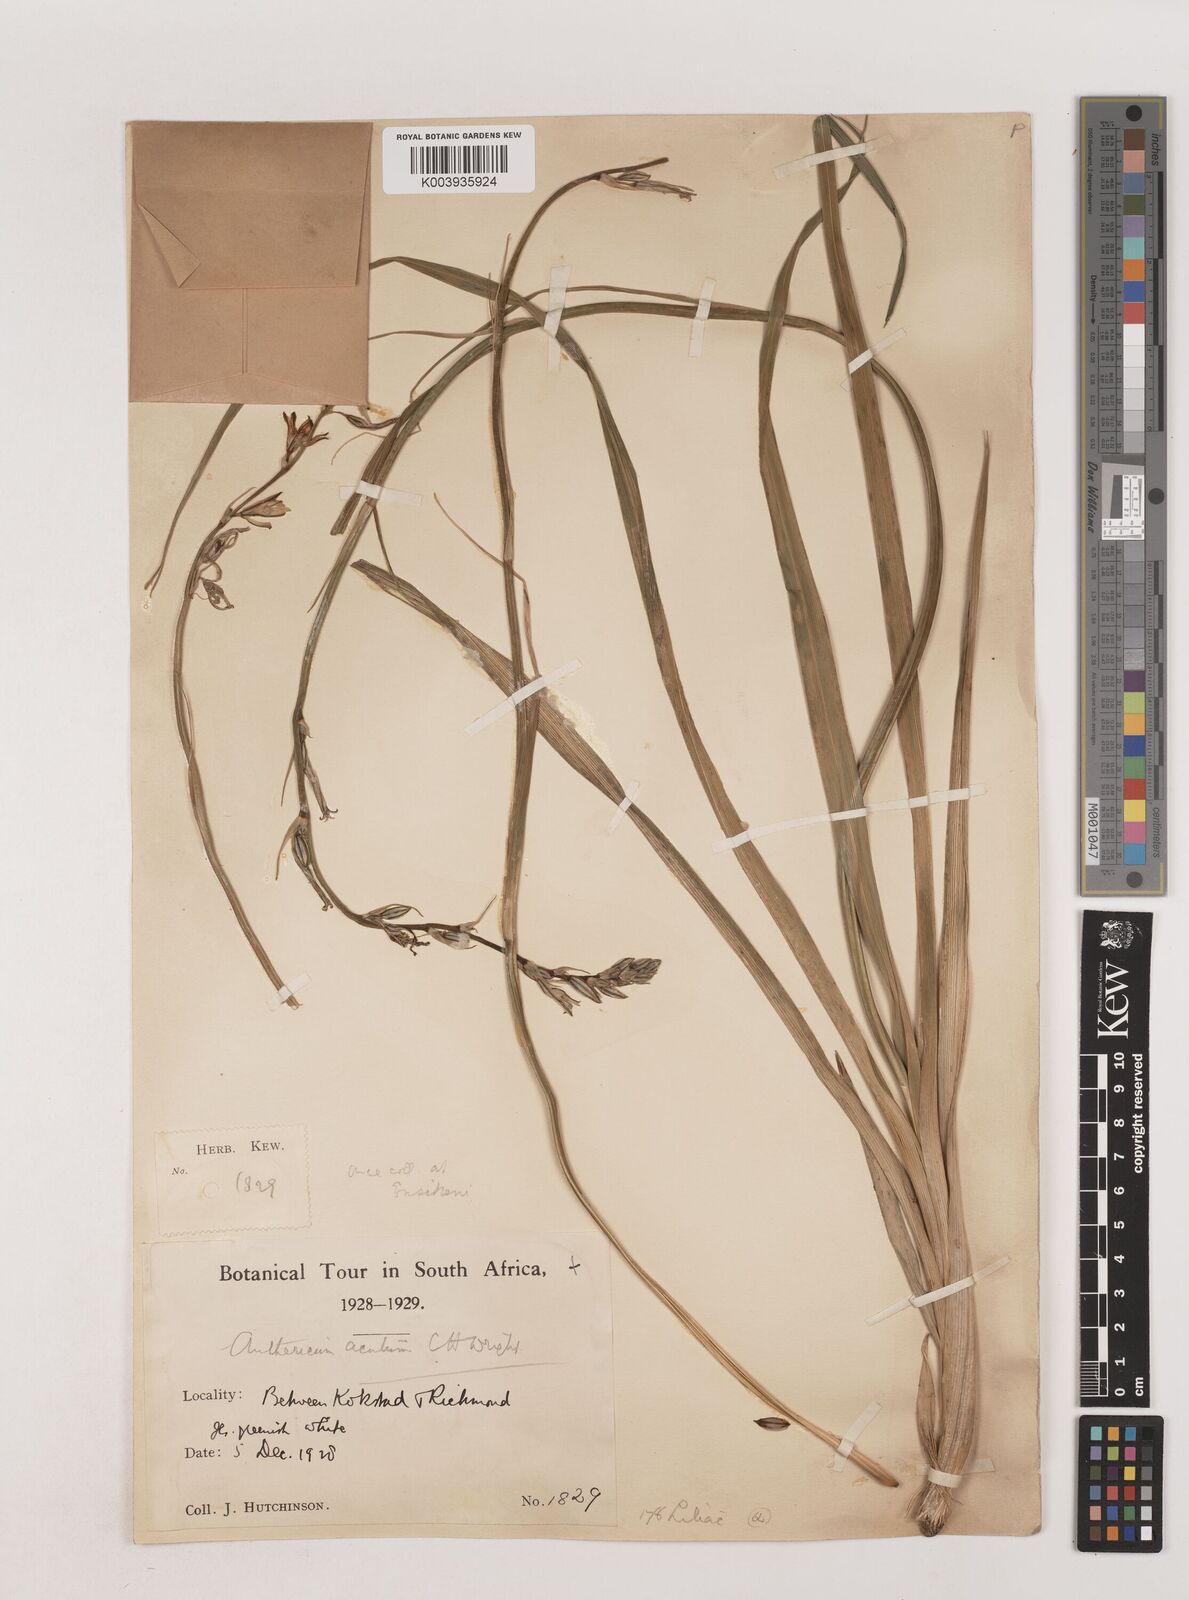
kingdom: Plantae
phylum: Tracheophyta
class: Liliopsida
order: Asparagales
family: Asparagaceae
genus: Chlorophytum
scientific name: Chlorophytum acutum
